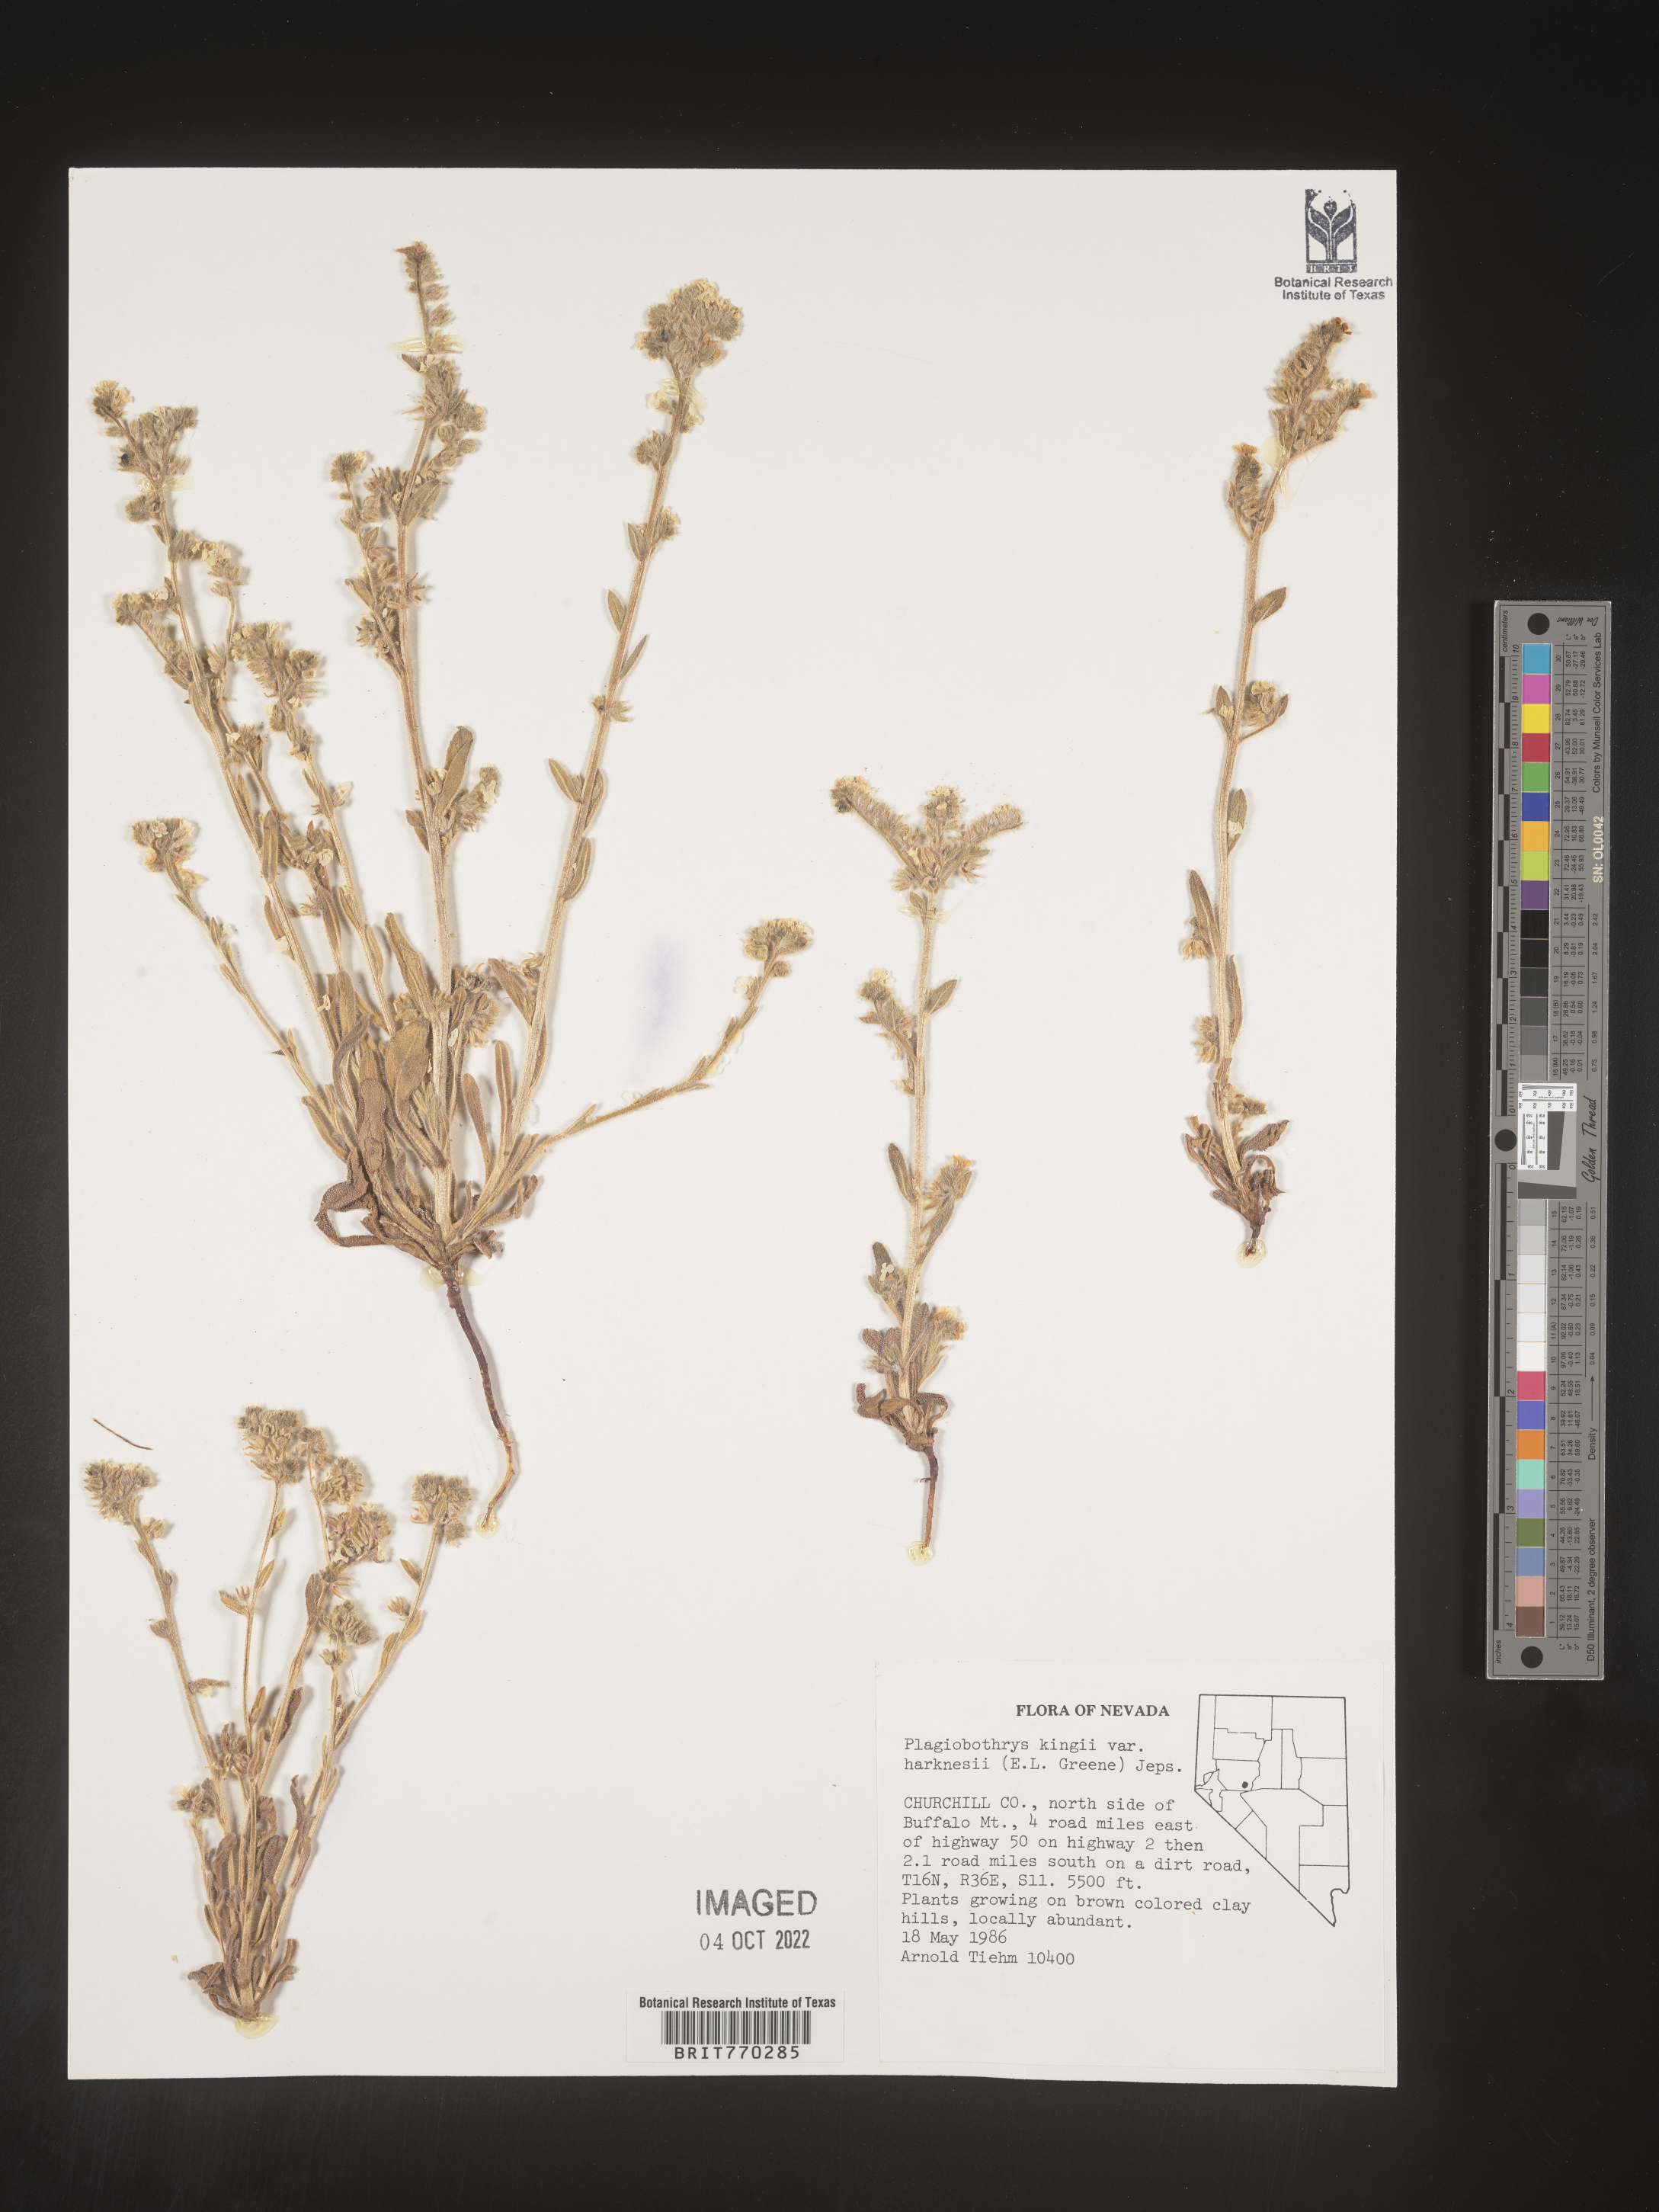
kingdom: Plantae
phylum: Tracheophyta
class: Magnoliopsida
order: Boraginales
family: Boraginaceae
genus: Plagiobothrys
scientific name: Plagiobothrys
